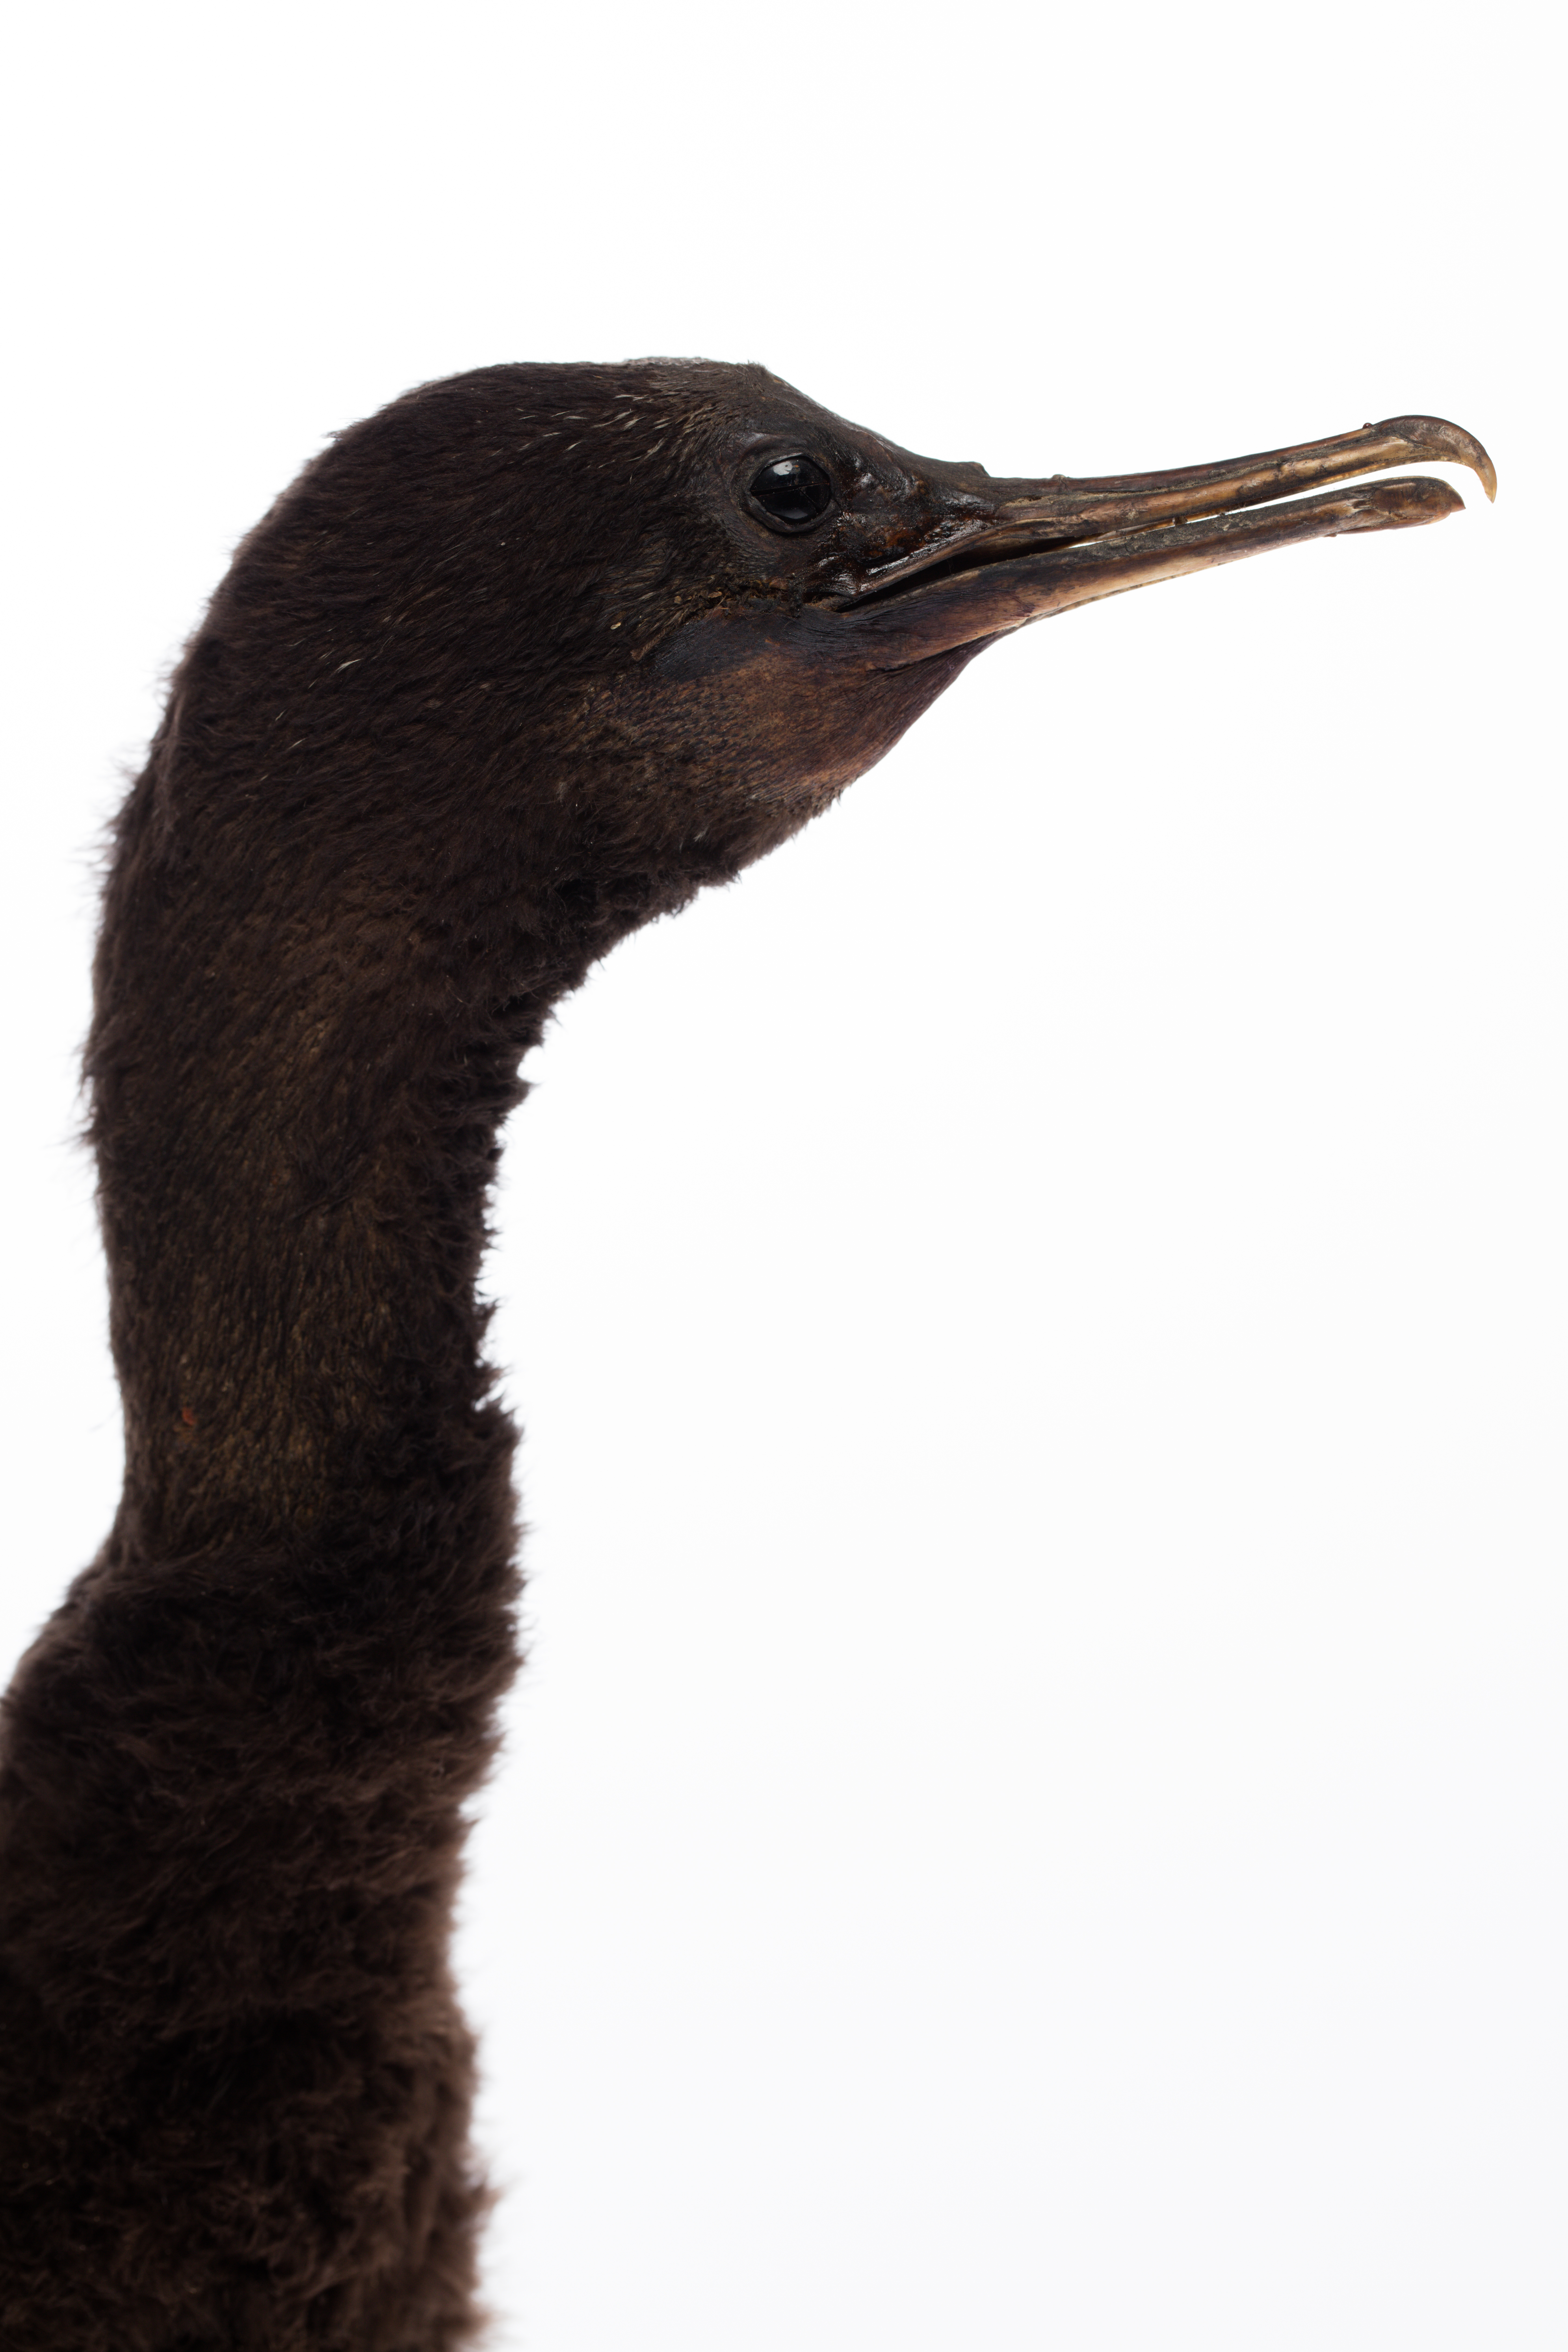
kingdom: Animalia
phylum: Chordata
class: Aves
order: Suliformes
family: Phalacrocoracidae
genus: Phalacrocorax
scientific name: Phalacrocorax sulcirostris
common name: Little black cormorant
